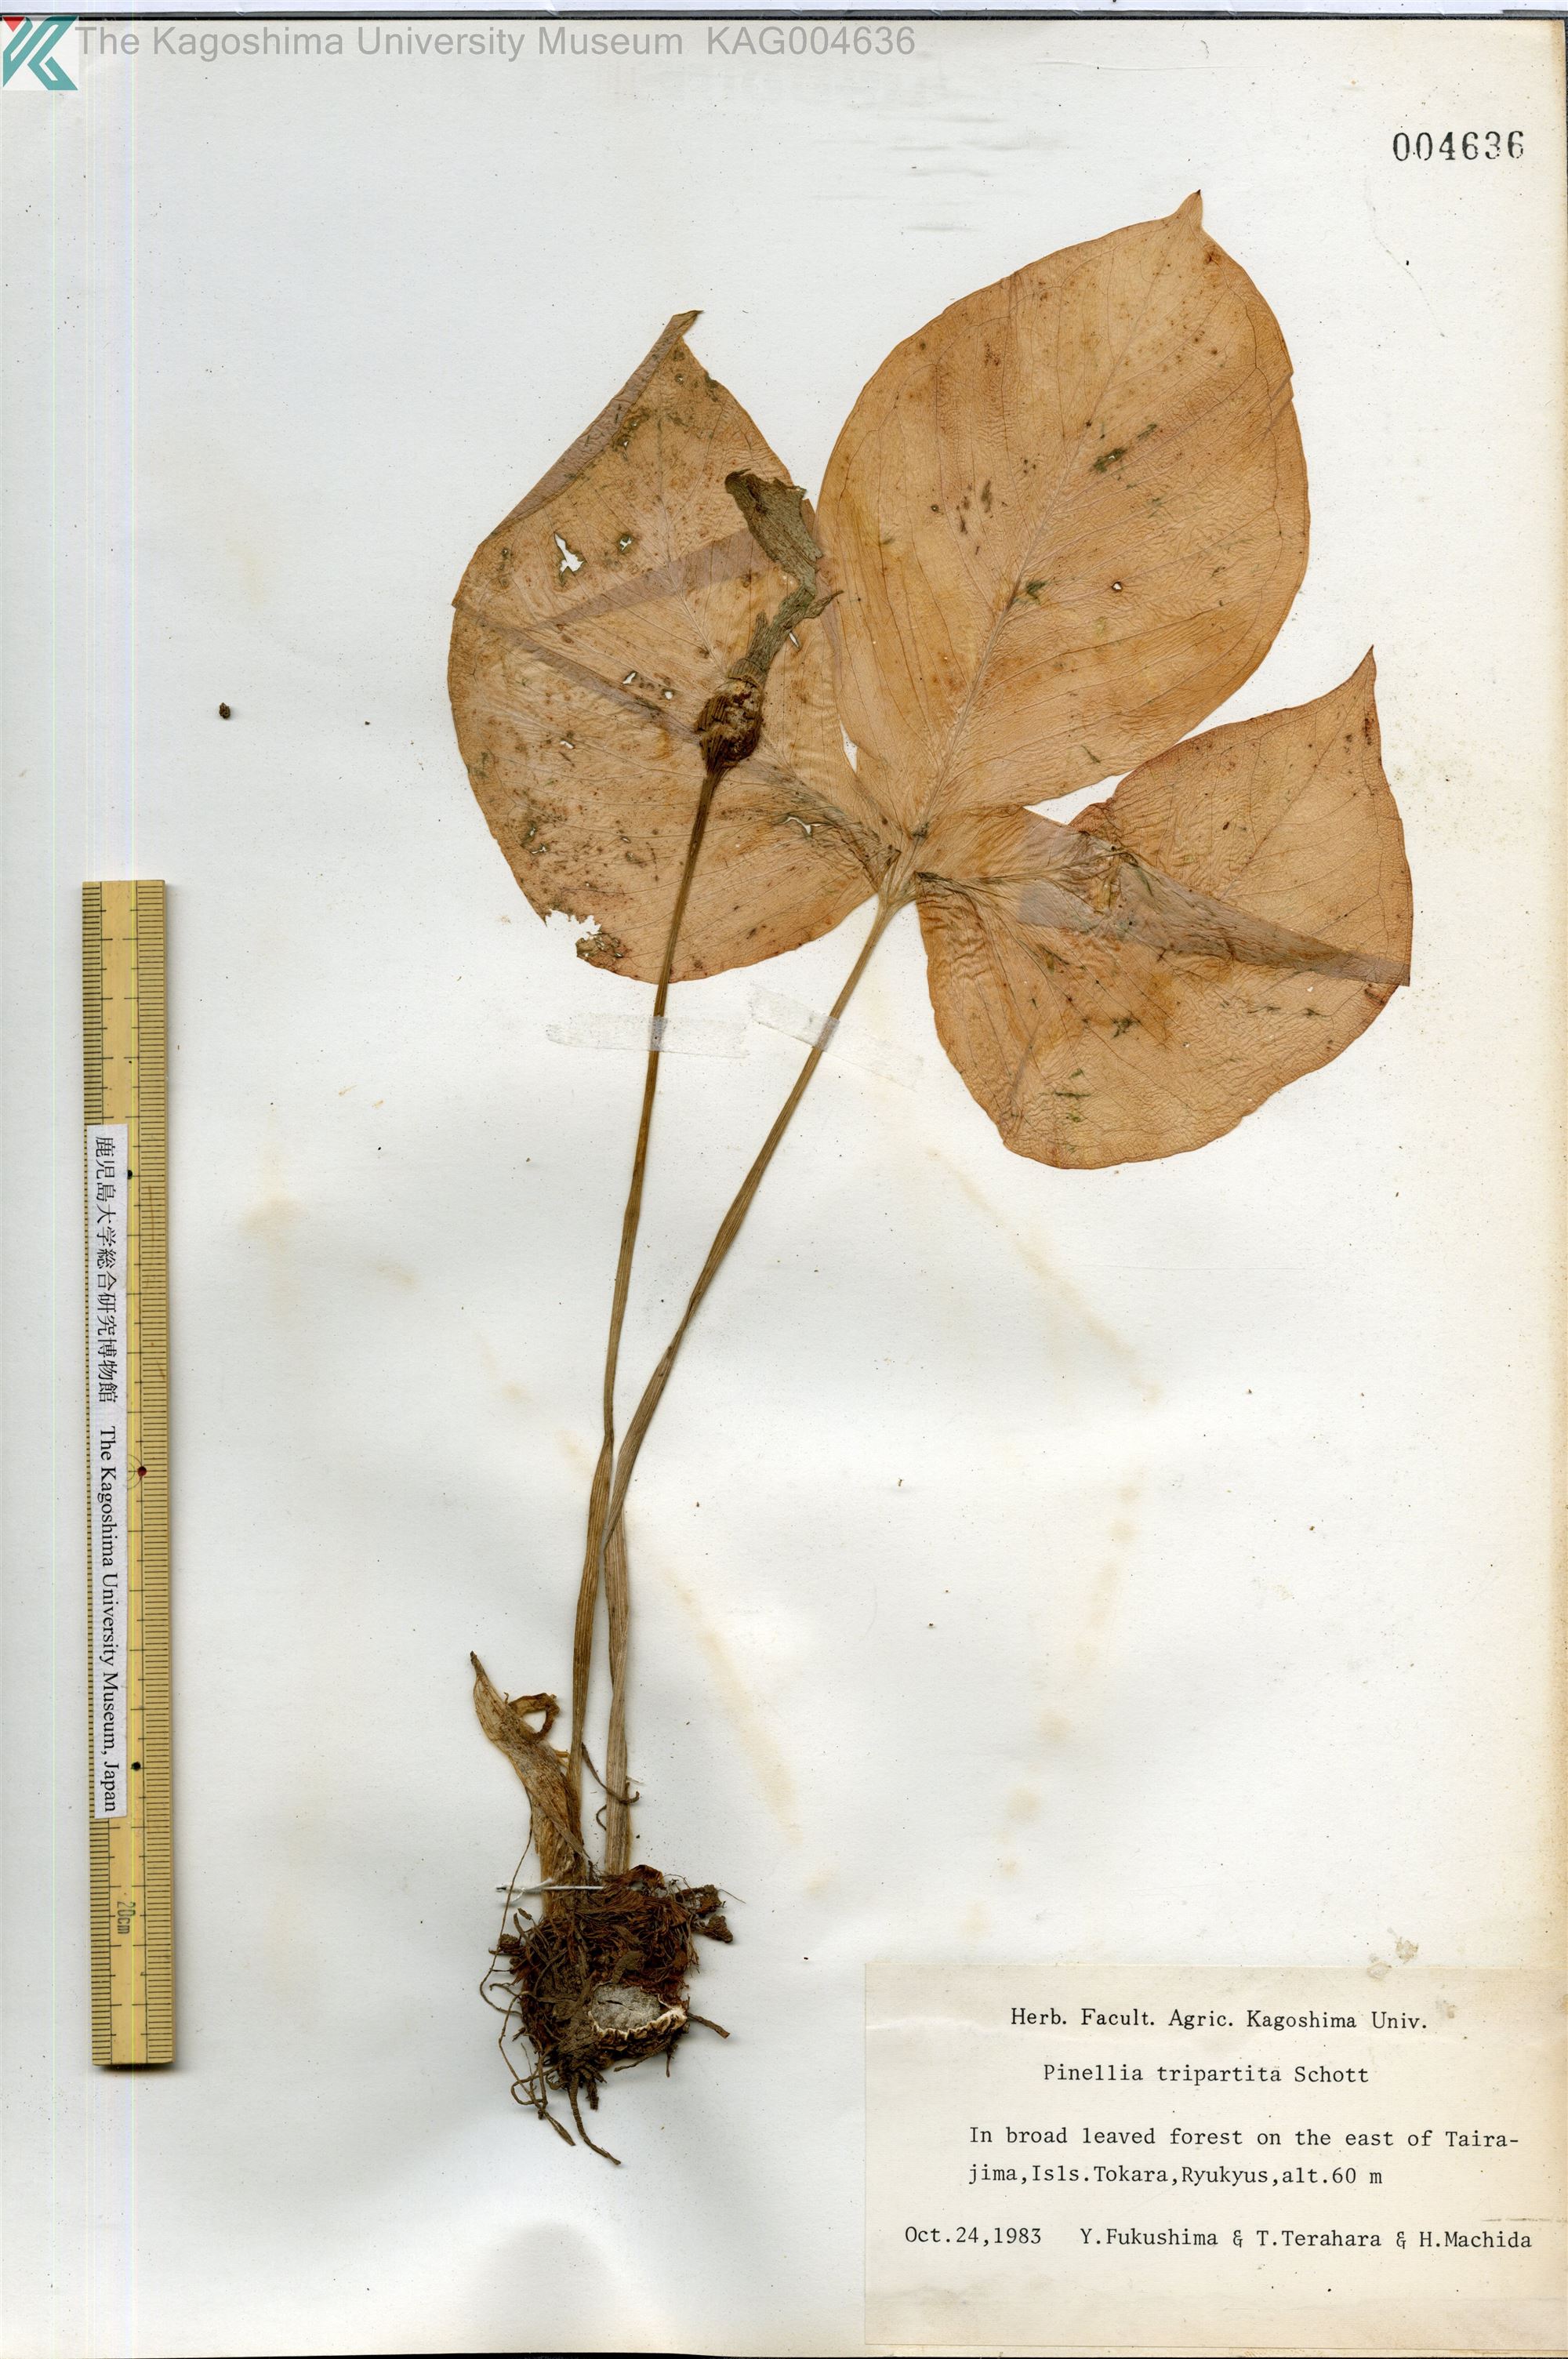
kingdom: Plantae
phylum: Tracheophyta
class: Liliopsida
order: Alismatales
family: Araceae
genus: Pinellia
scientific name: Pinellia tripartita
